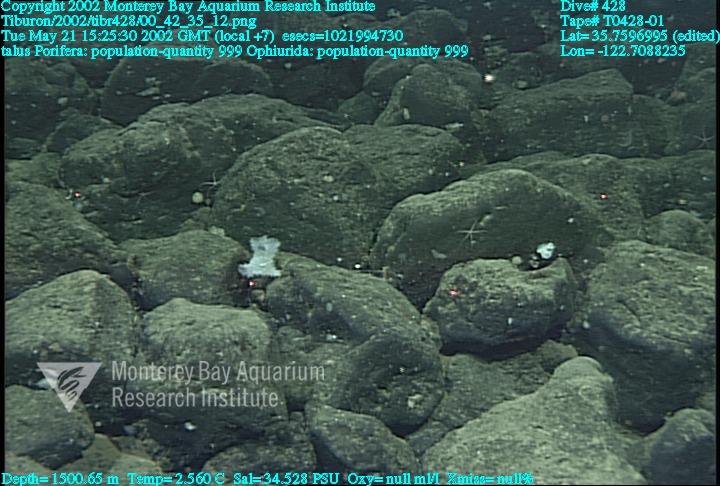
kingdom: Animalia
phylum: Porifera
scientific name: Porifera
